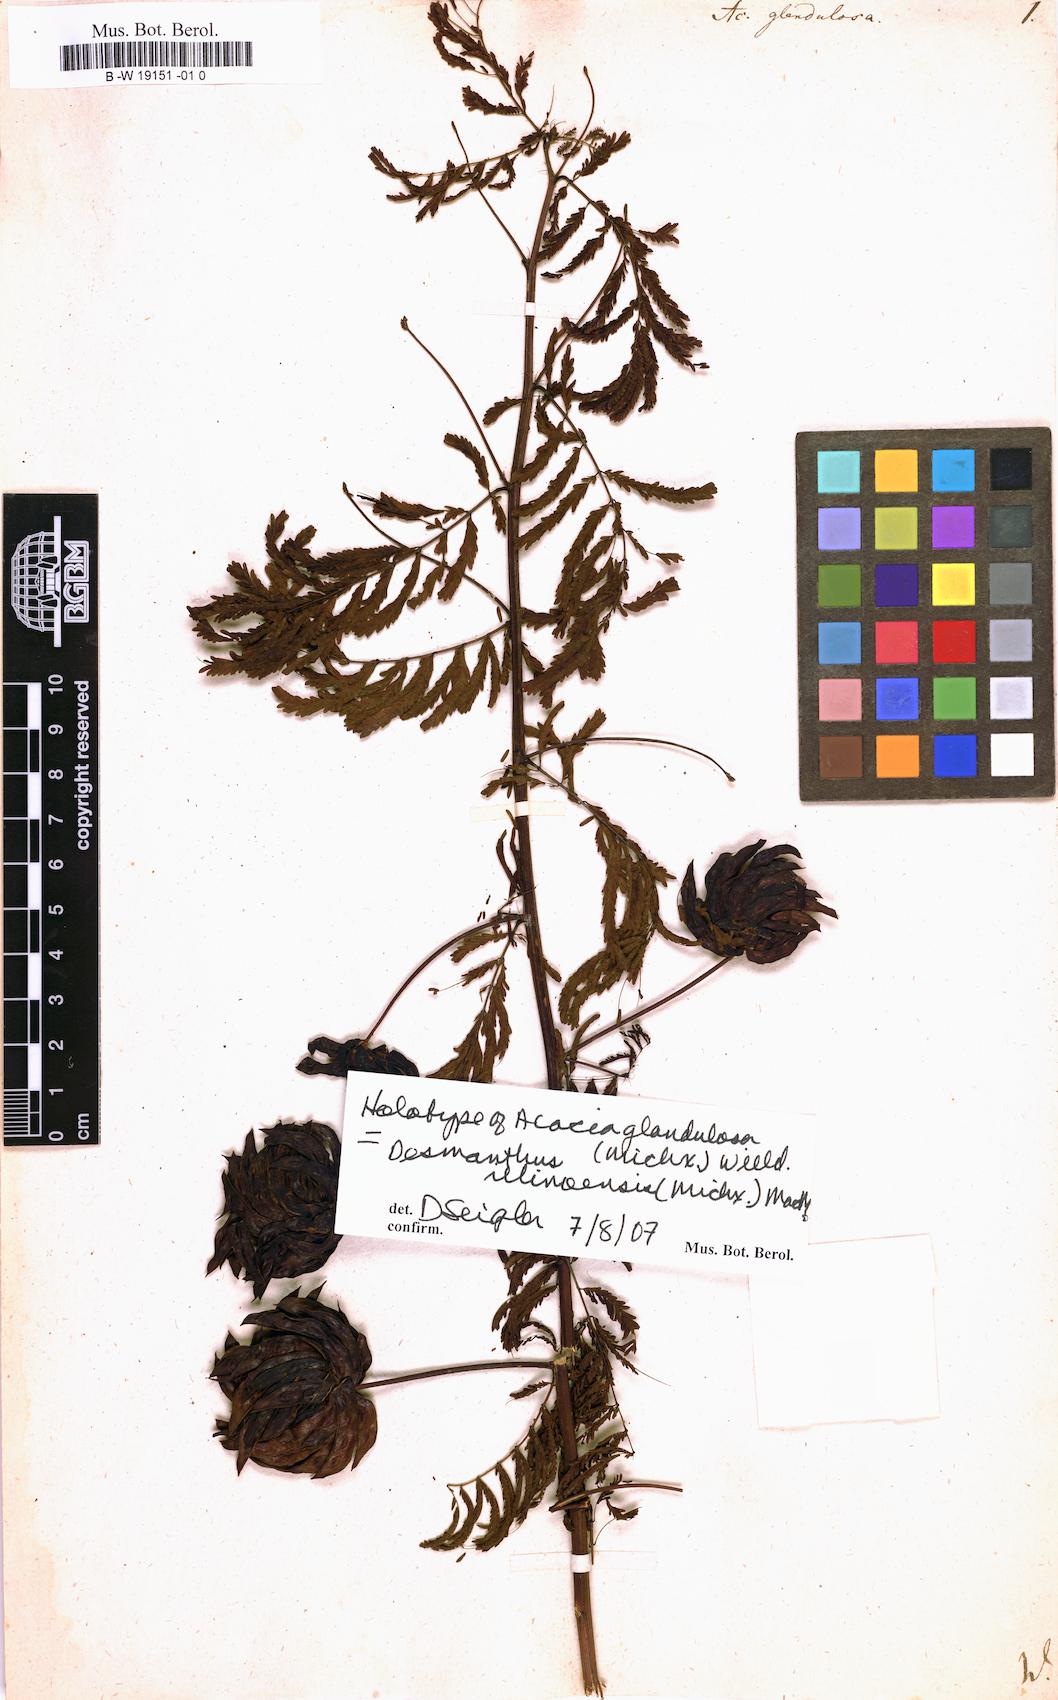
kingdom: Plantae
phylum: Tracheophyta
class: Magnoliopsida
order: Fabales
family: Fabaceae
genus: Desmanthus
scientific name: Desmanthus illinoensis
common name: Illinois bundle-flower
